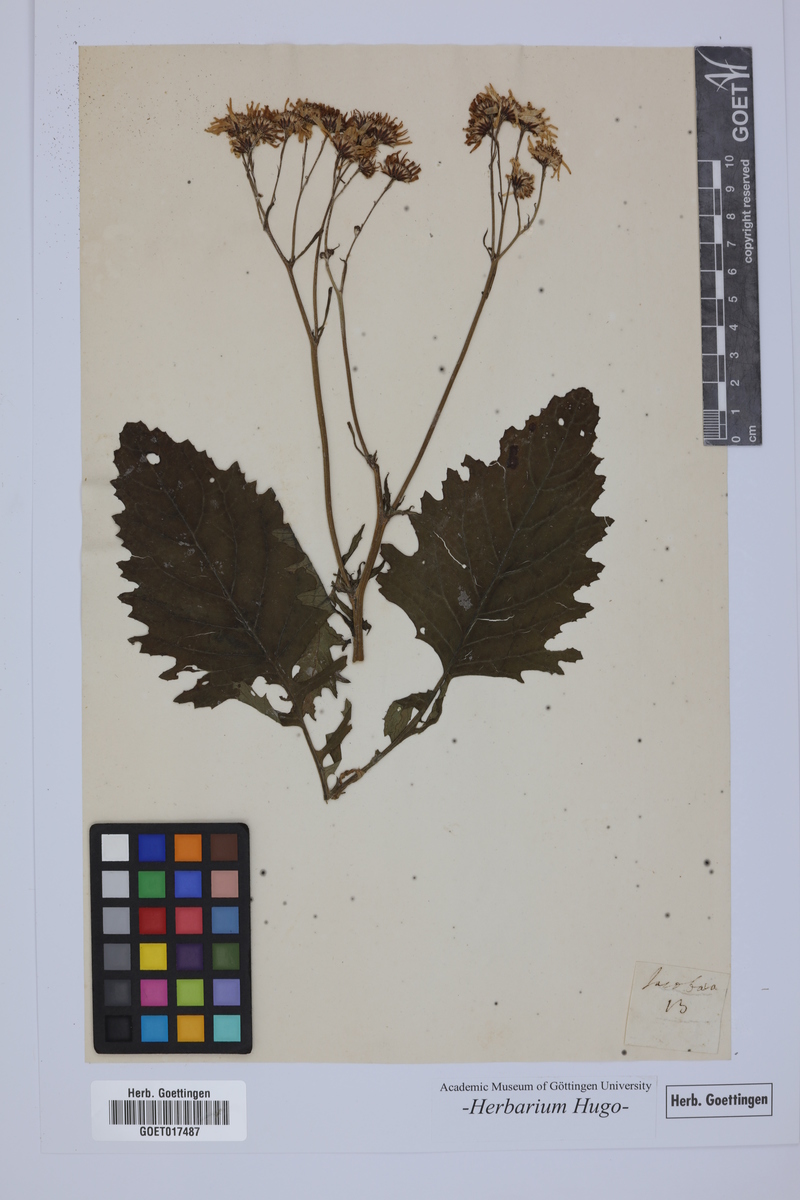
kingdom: Plantae
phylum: Tracheophyta
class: Magnoliopsida
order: Asterales
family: Asteraceae
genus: Jacobaea
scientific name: Jacobaea
